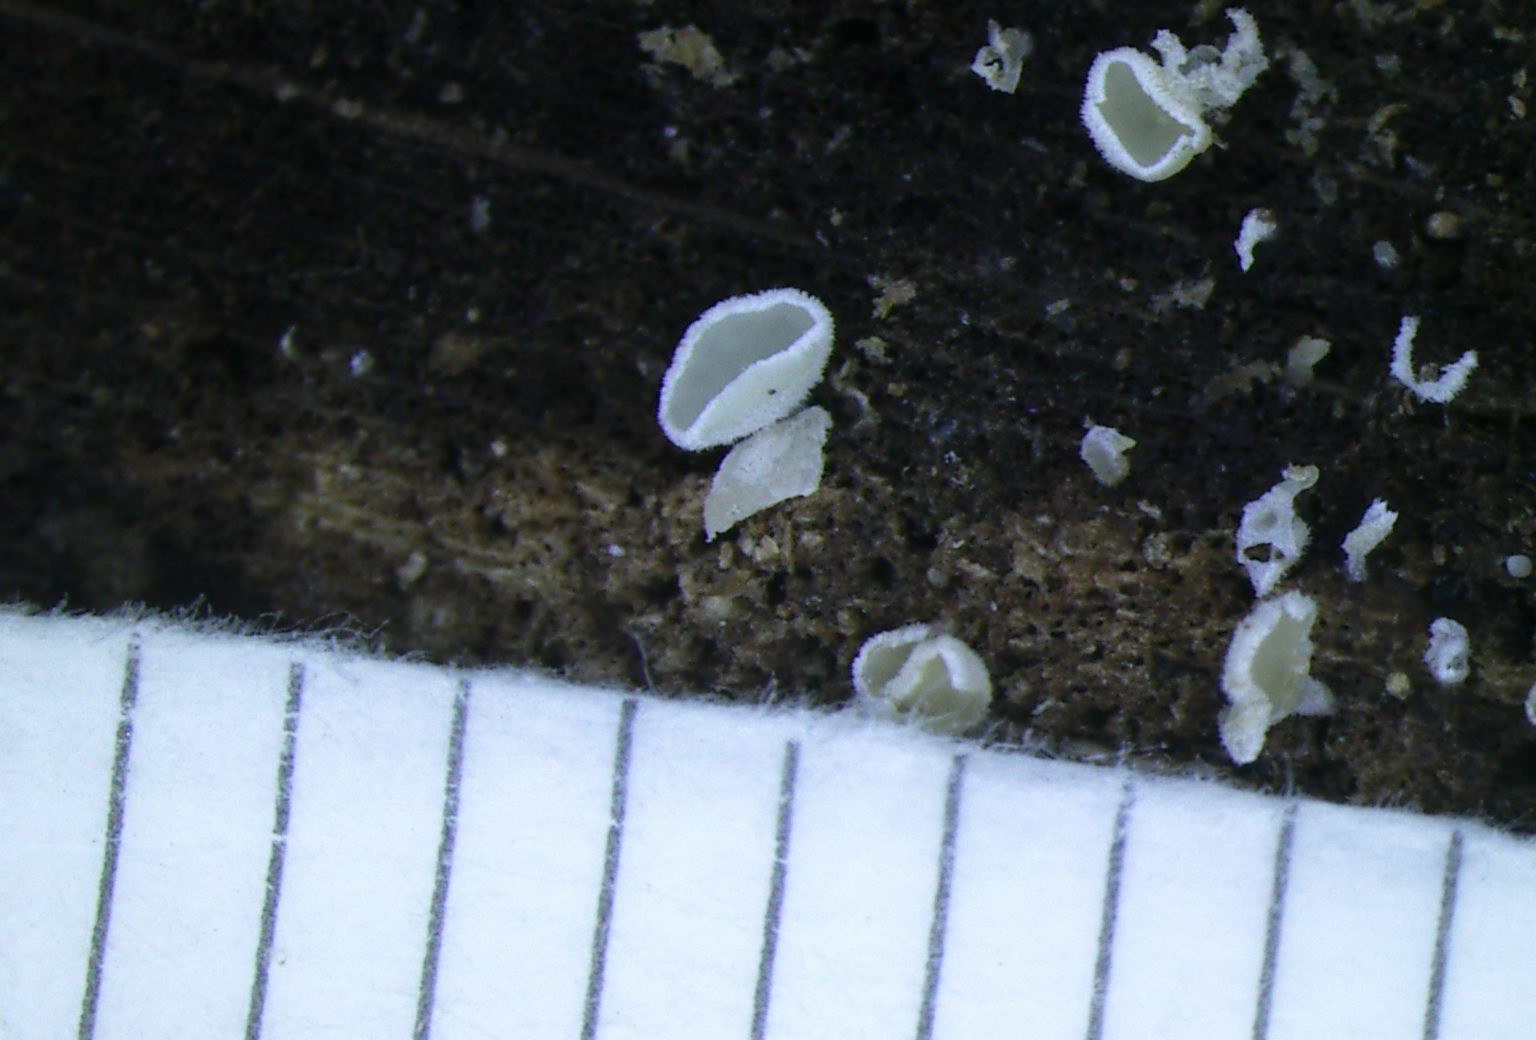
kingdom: Fungi
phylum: Ascomycota
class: Leotiomycetes
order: Helotiales
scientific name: Helotiales
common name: stilkskiveordenen
